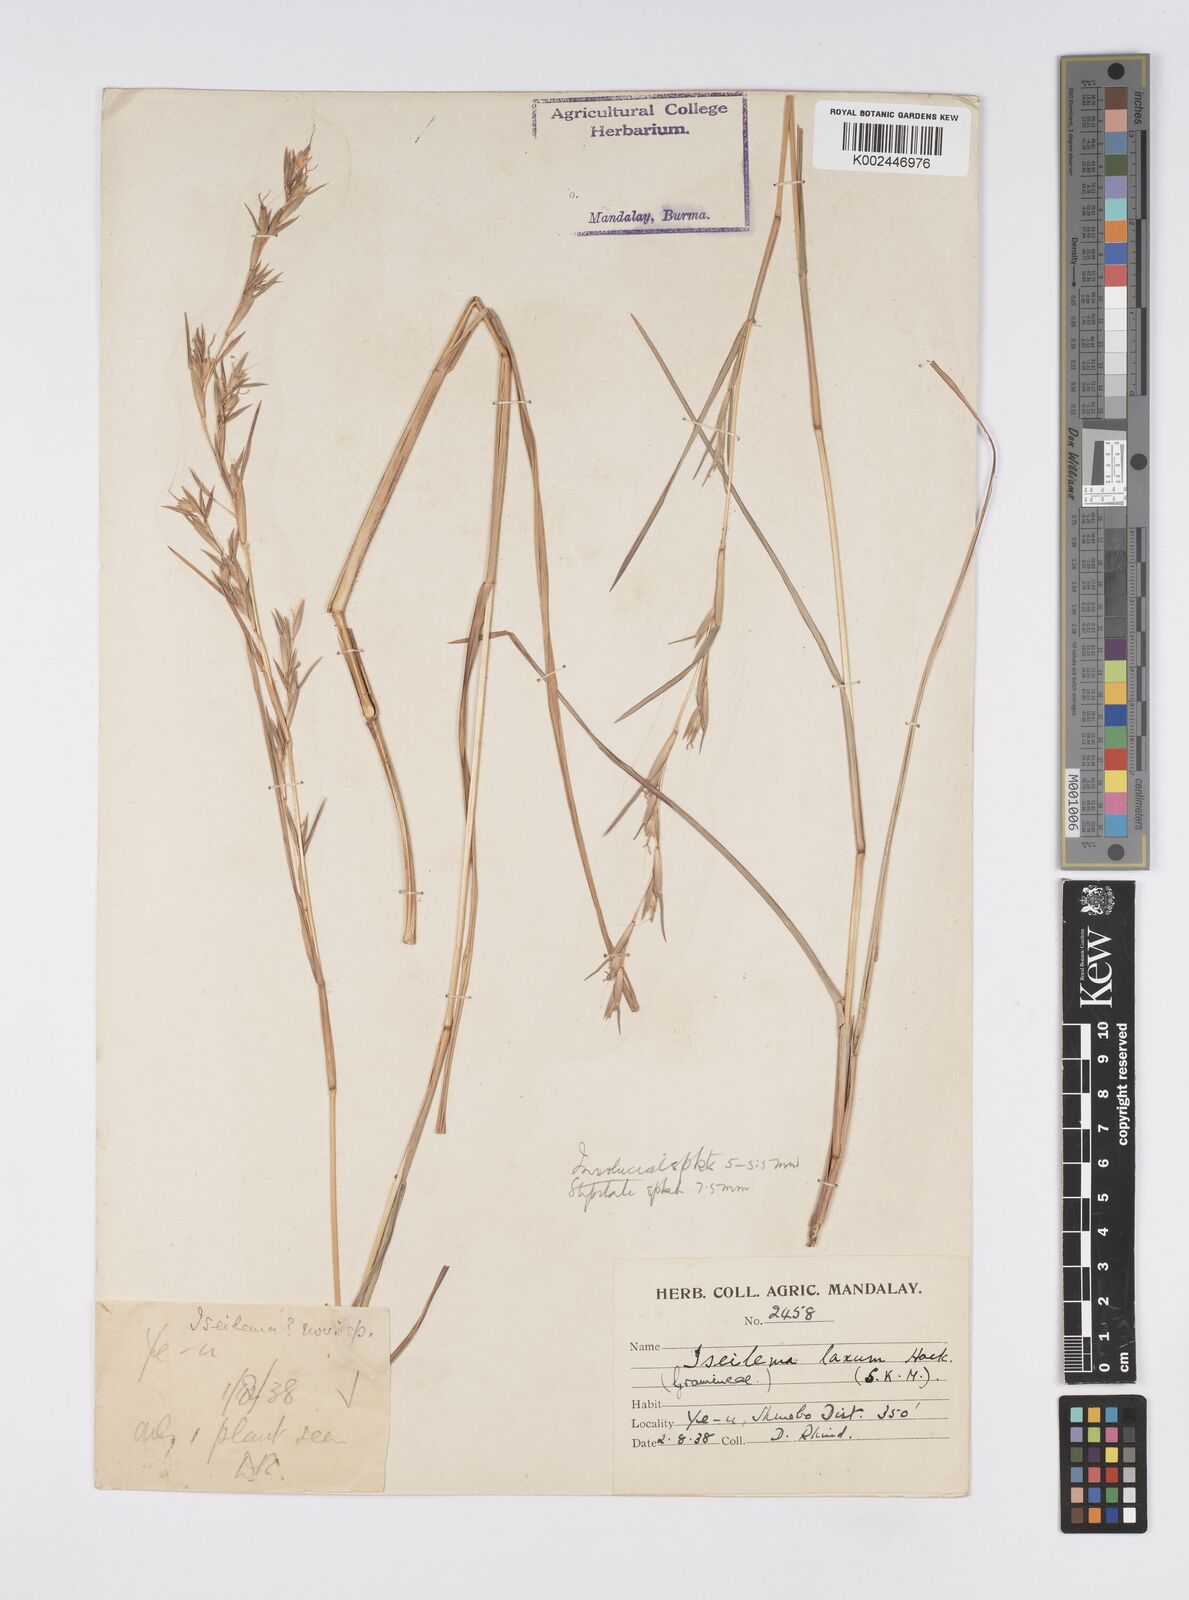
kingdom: Plantae
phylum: Tracheophyta
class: Liliopsida
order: Poales
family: Poaceae
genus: Iseilema
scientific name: Iseilema prostratum
